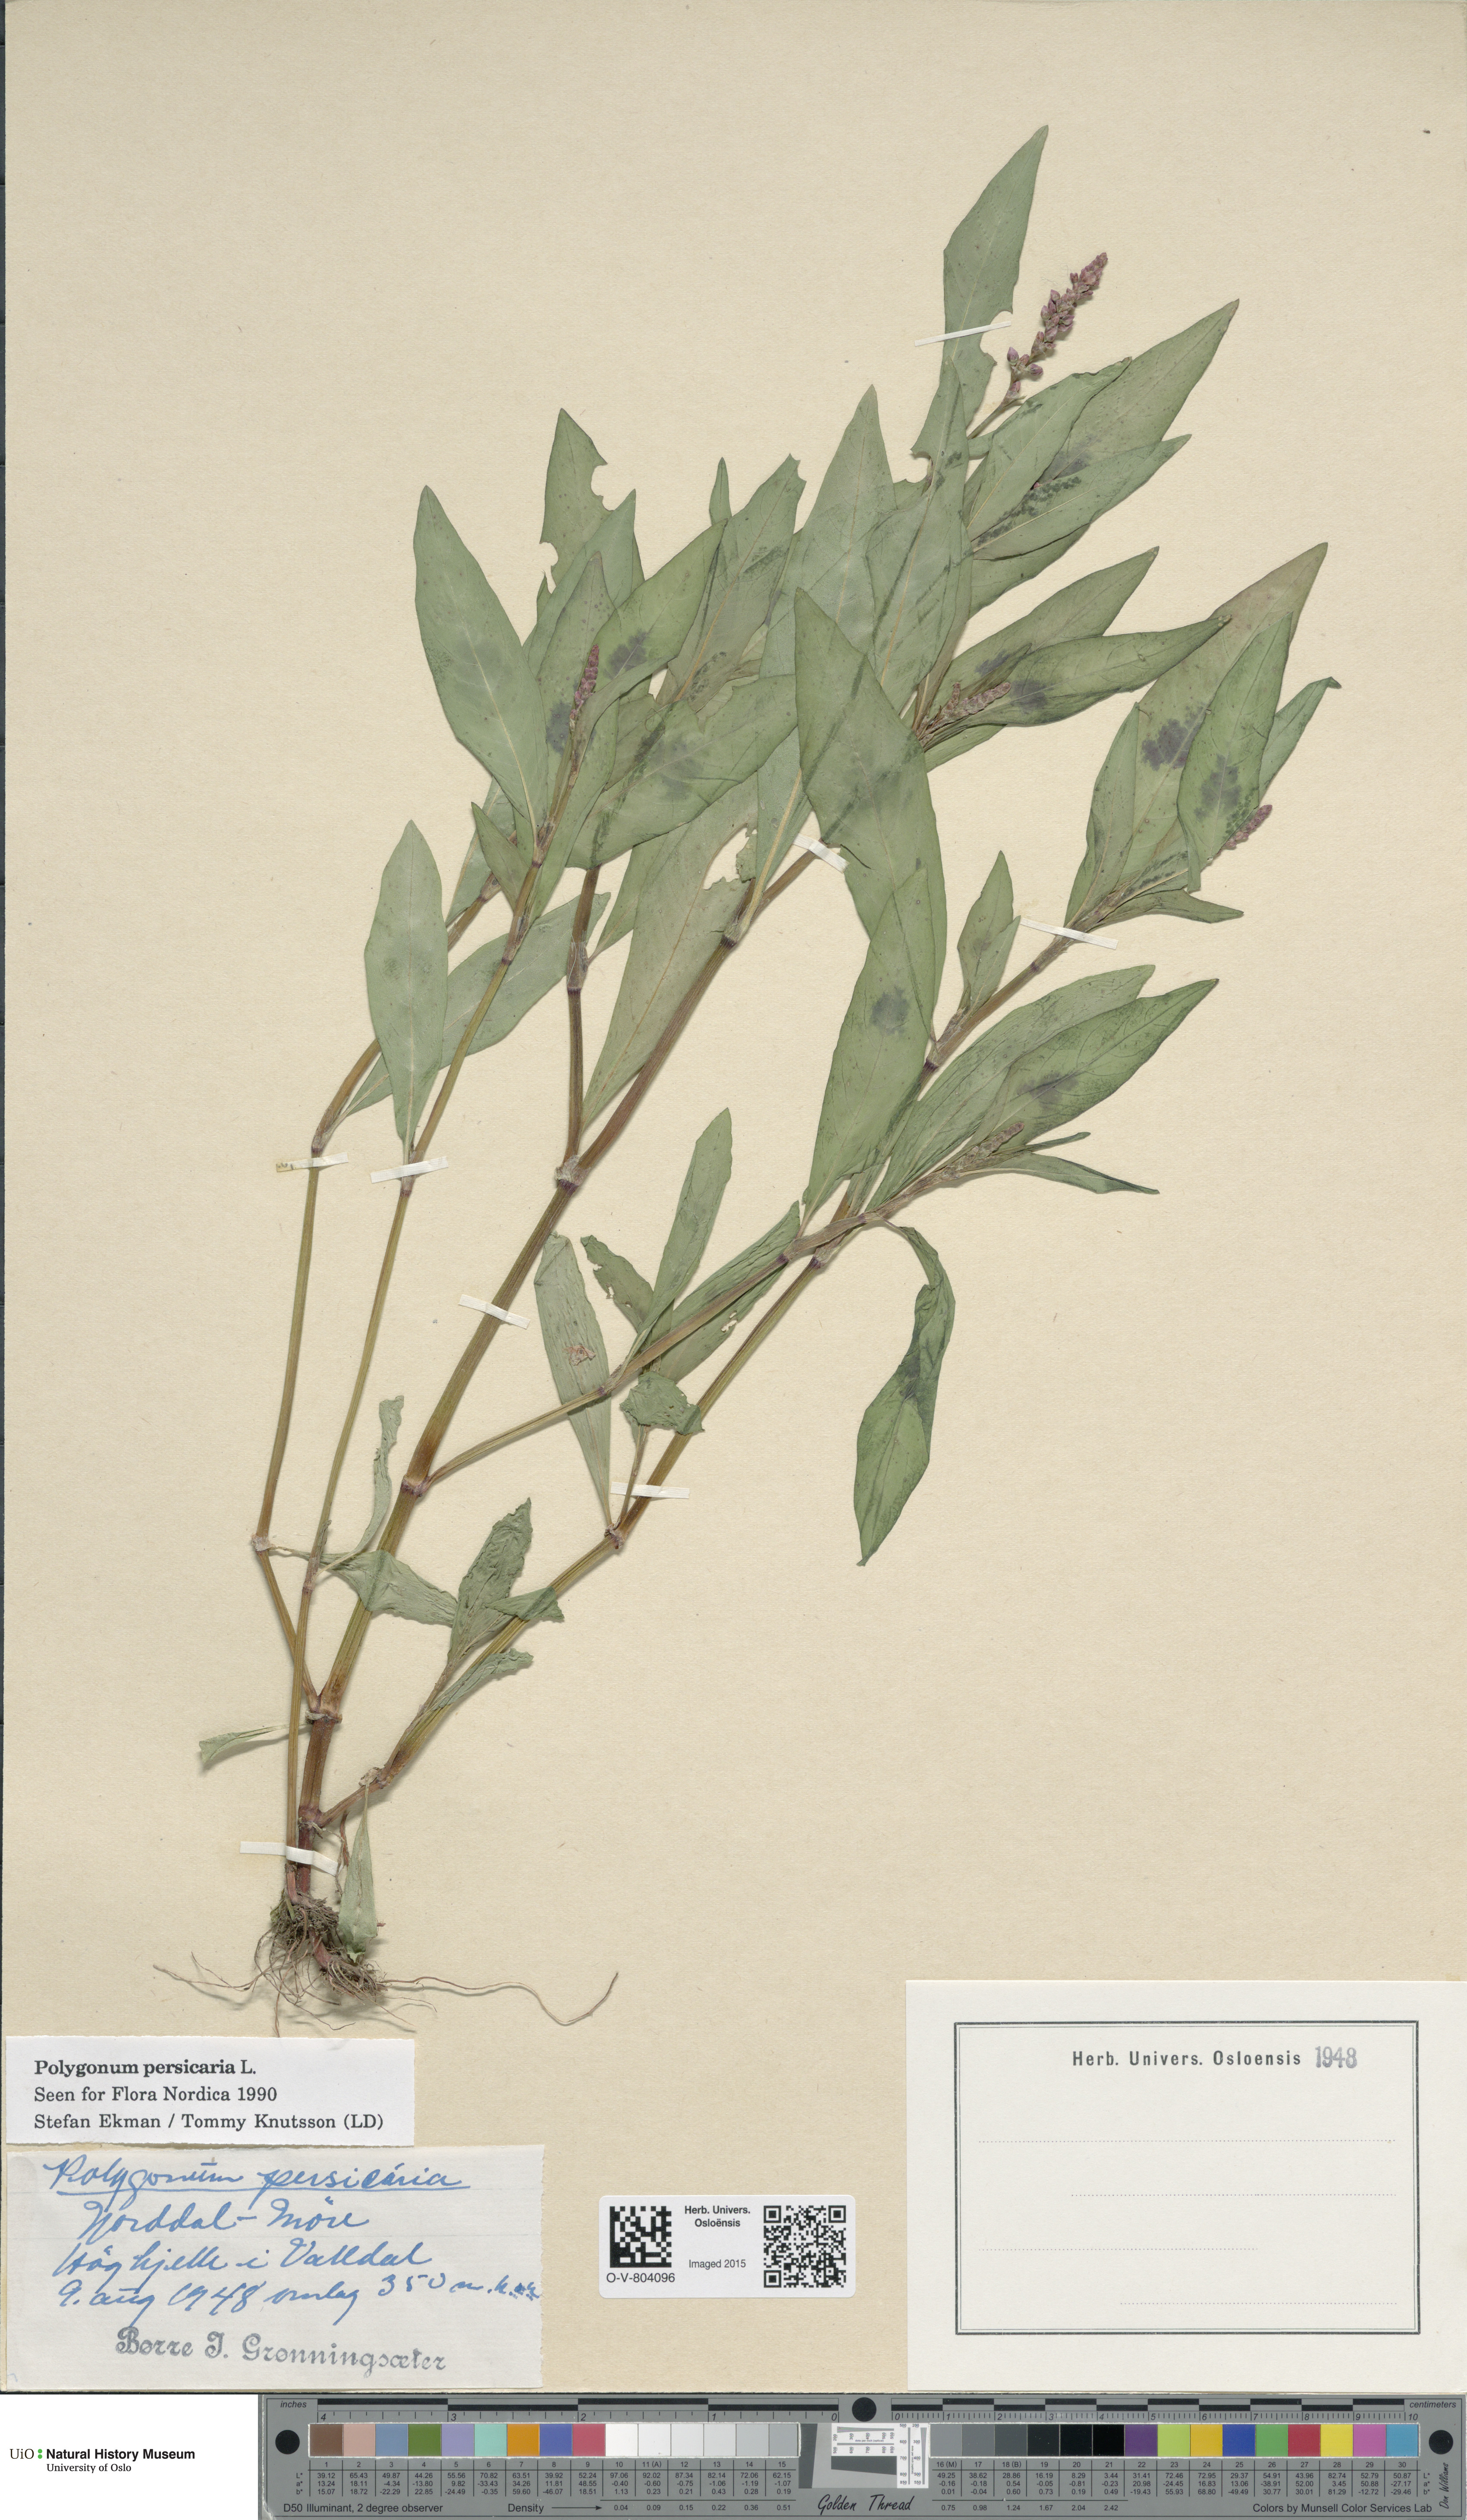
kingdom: Plantae
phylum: Tracheophyta
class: Magnoliopsida
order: Caryophyllales
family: Polygonaceae
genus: Persicaria
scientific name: Persicaria maculosa
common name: Redshank
